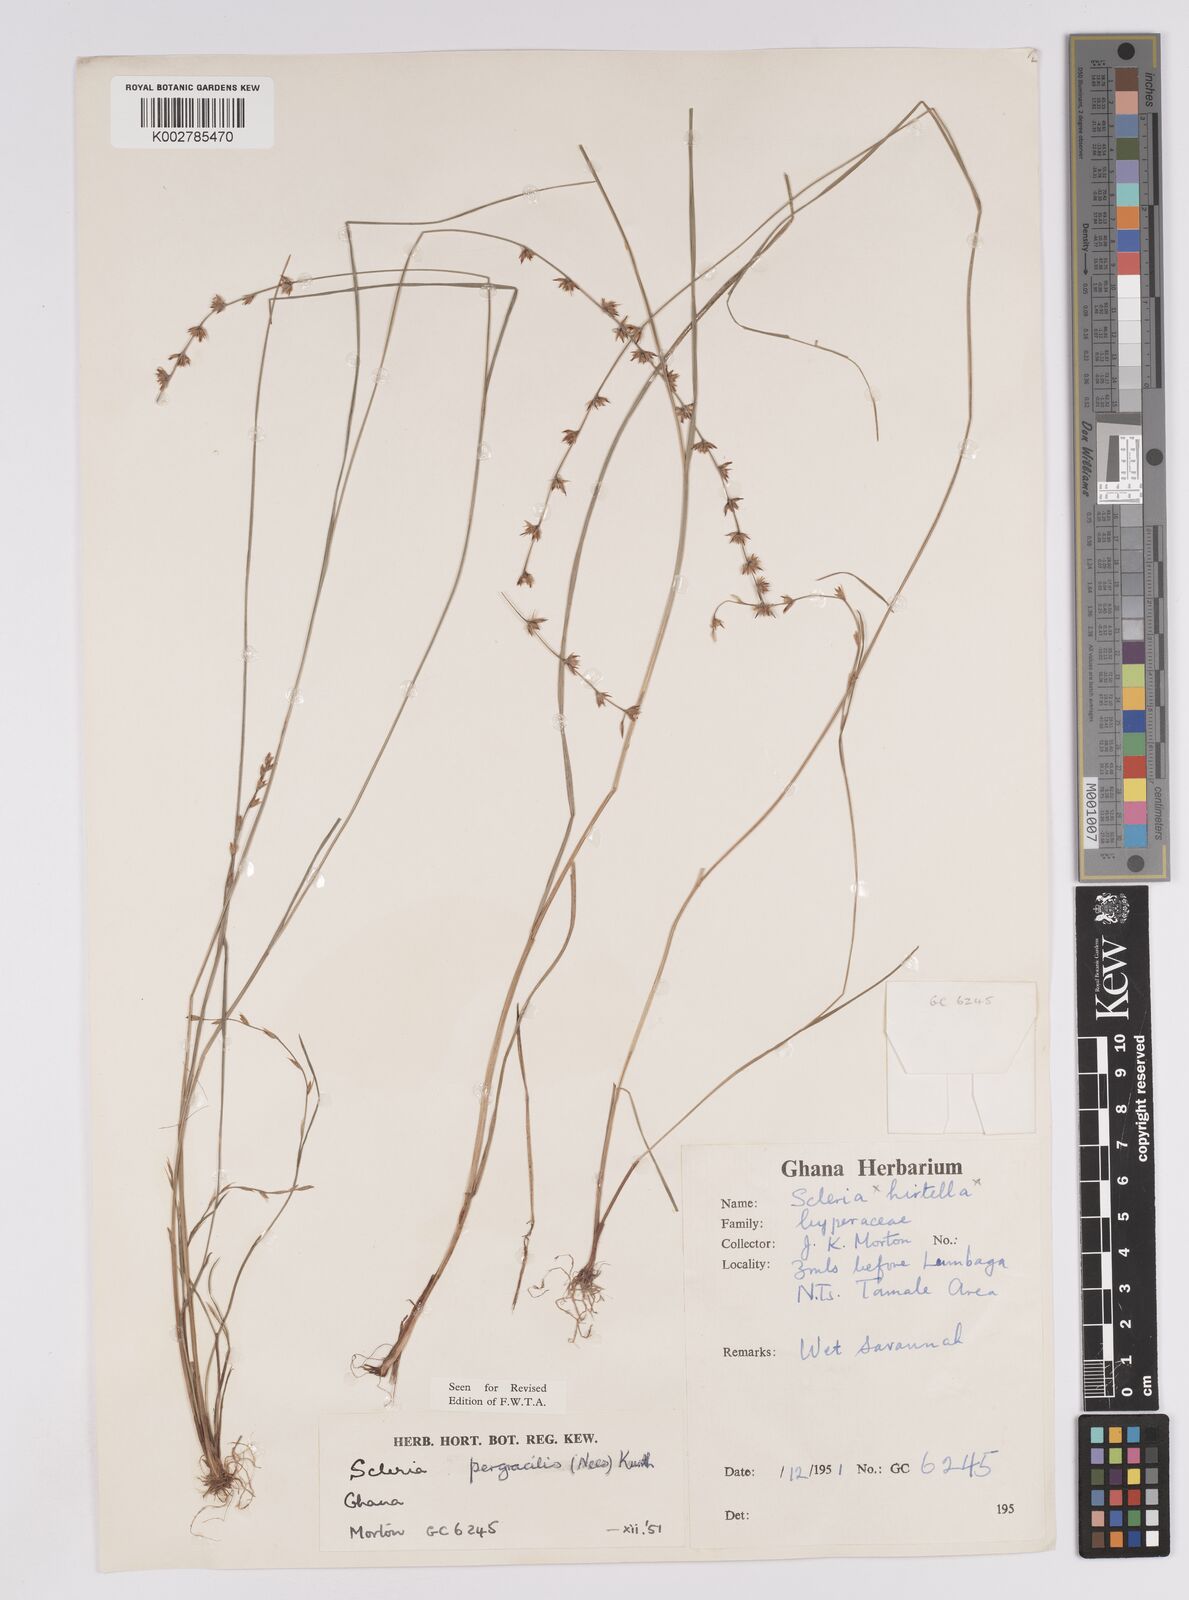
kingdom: Plantae
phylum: Tracheophyta
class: Liliopsida
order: Poales
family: Cyperaceae
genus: Scleria
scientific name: Scleria pergracilis
